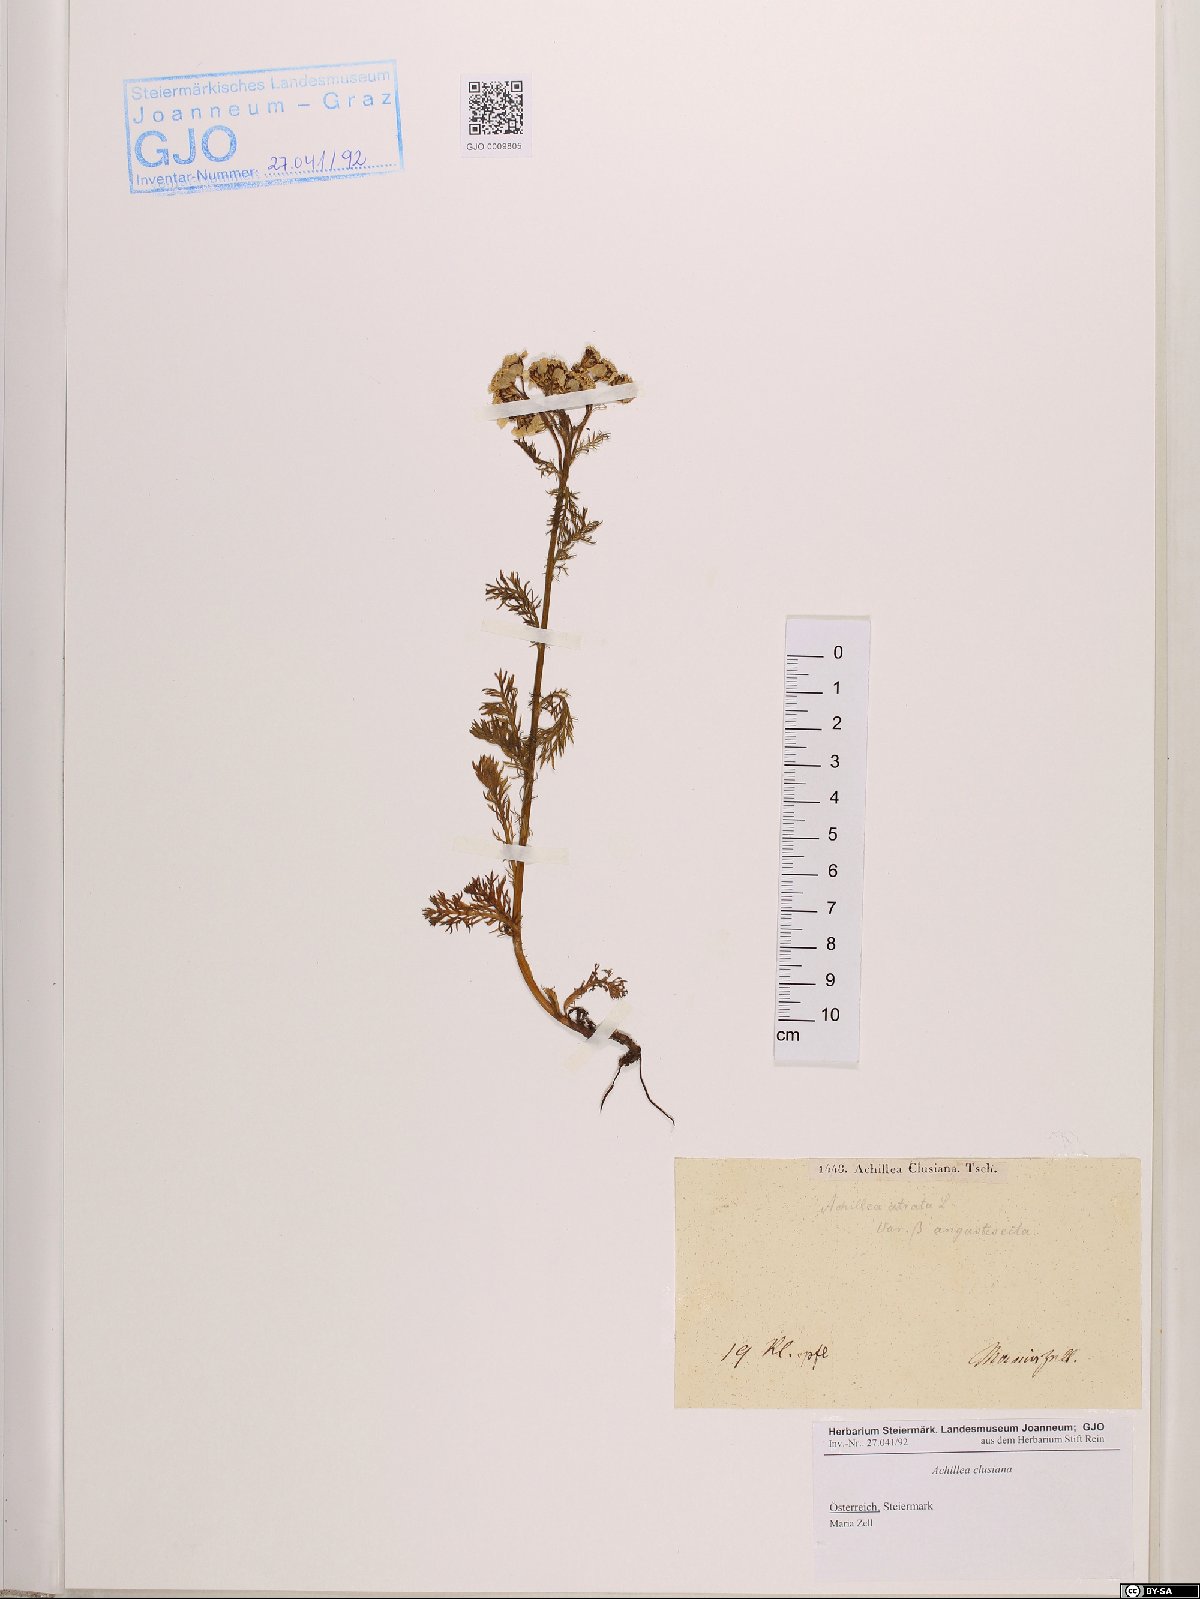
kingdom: Plantae
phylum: Tracheophyta
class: Magnoliopsida
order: Asterales
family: Asteraceae
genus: Achillea
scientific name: Achillea clusiana
